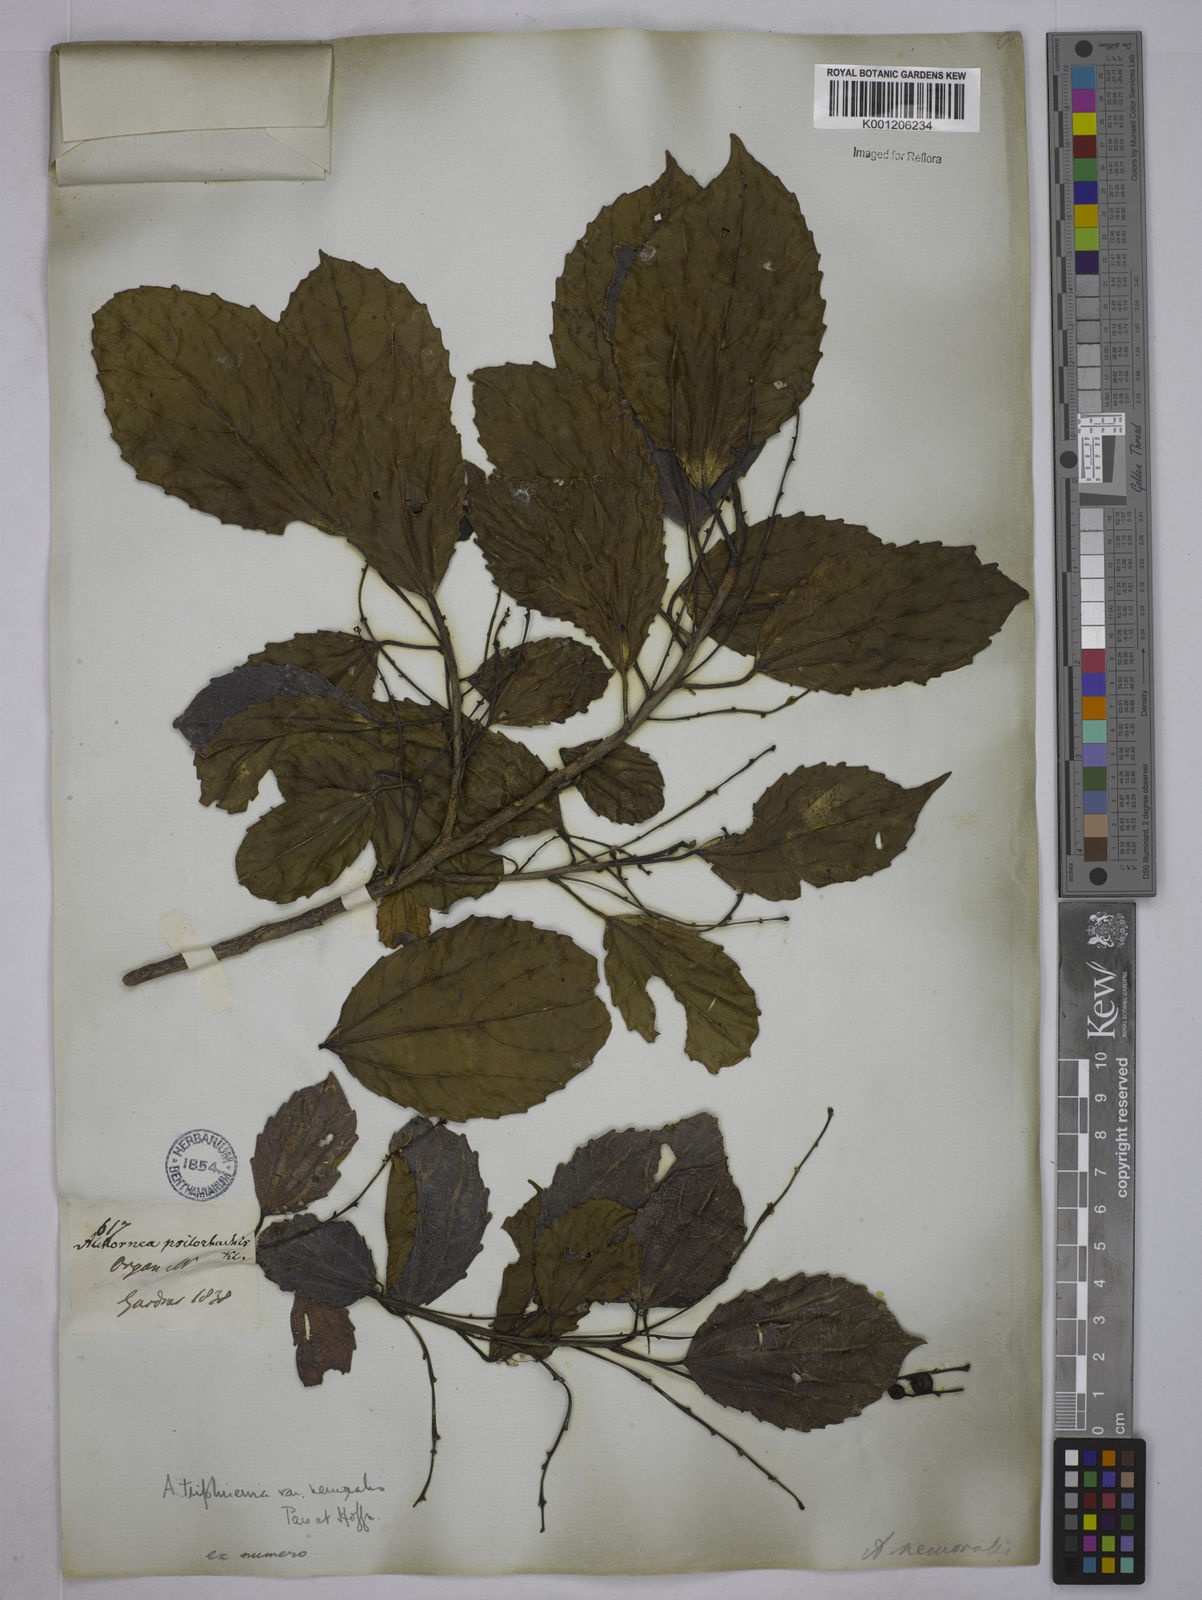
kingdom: Plantae
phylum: Tracheophyta
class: Magnoliopsida
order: Malpighiales
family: Euphorbiaceae
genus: Alchornea
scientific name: Alchornea triplinervia
